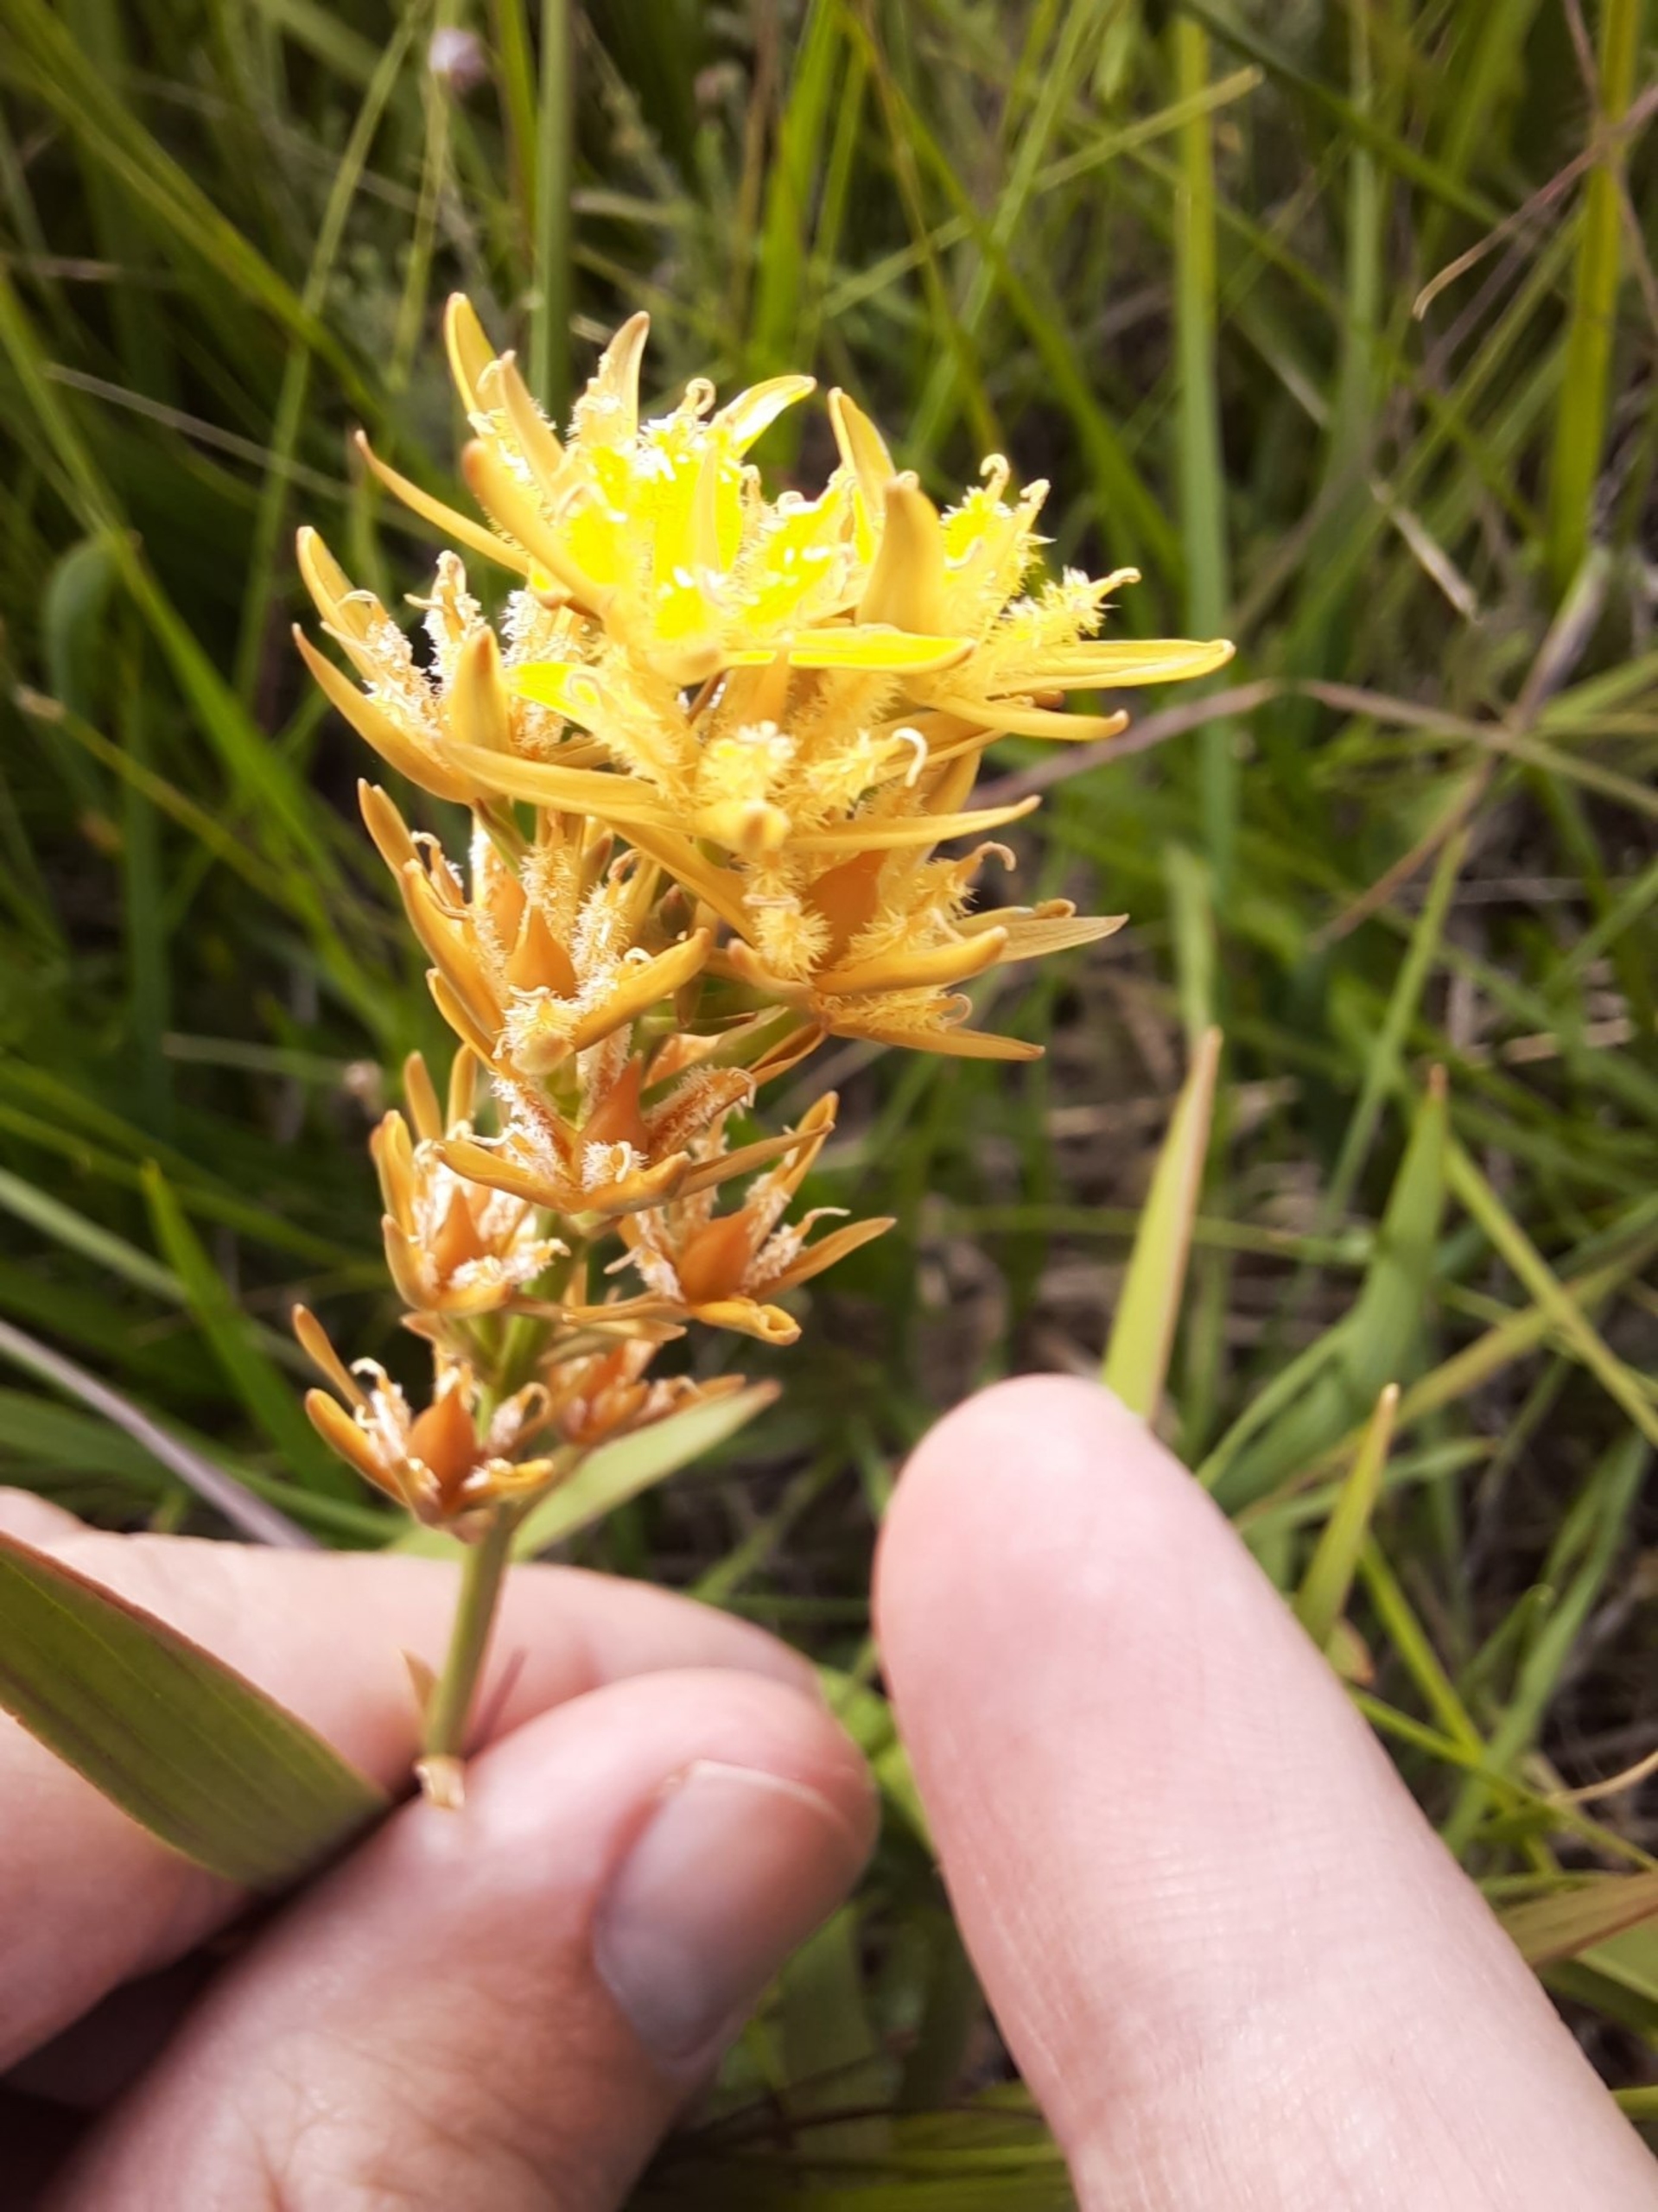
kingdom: Plantae
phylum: Tracheophyta
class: Liliopsida
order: Dioscoreales
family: Nartheciaceae
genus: Narthecium
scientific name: Narthecium ossifragum
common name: Benbræk
